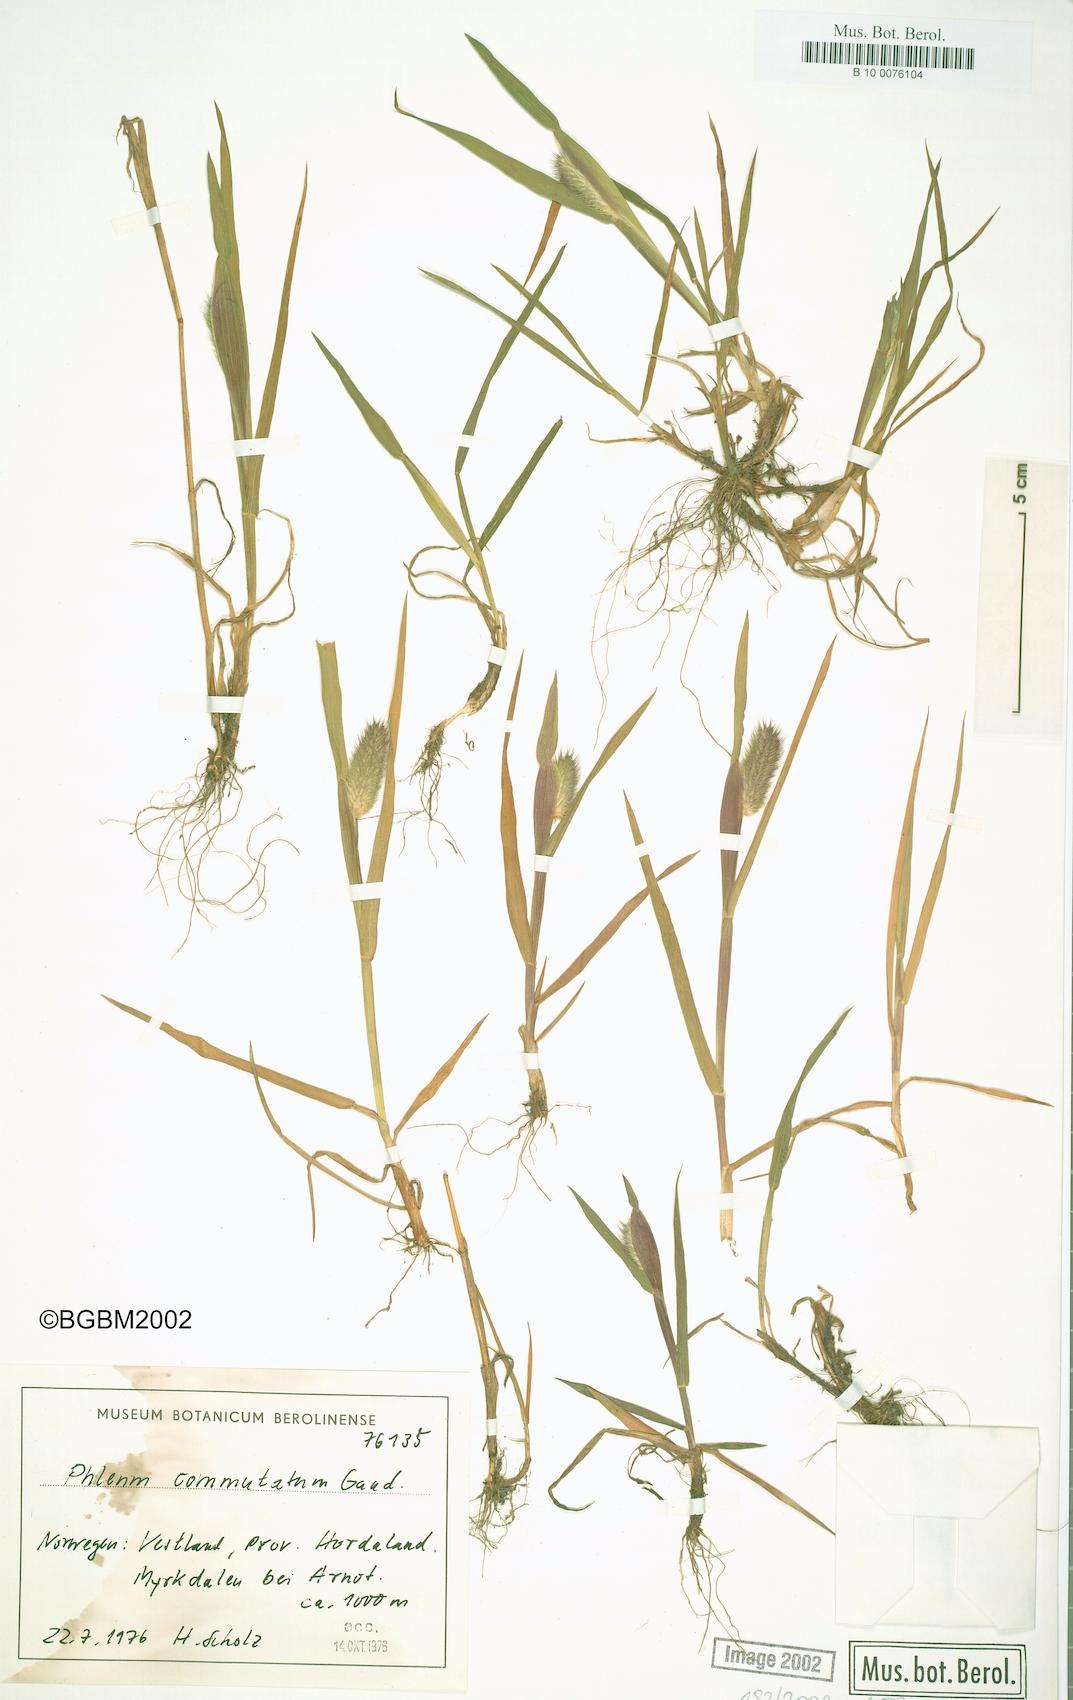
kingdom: Plantae
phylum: Tracheophyta
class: Liliopsida
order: Poales
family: Poaceae
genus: Phleum
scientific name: Phleum alpinum
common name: Alpine cat's-tail
